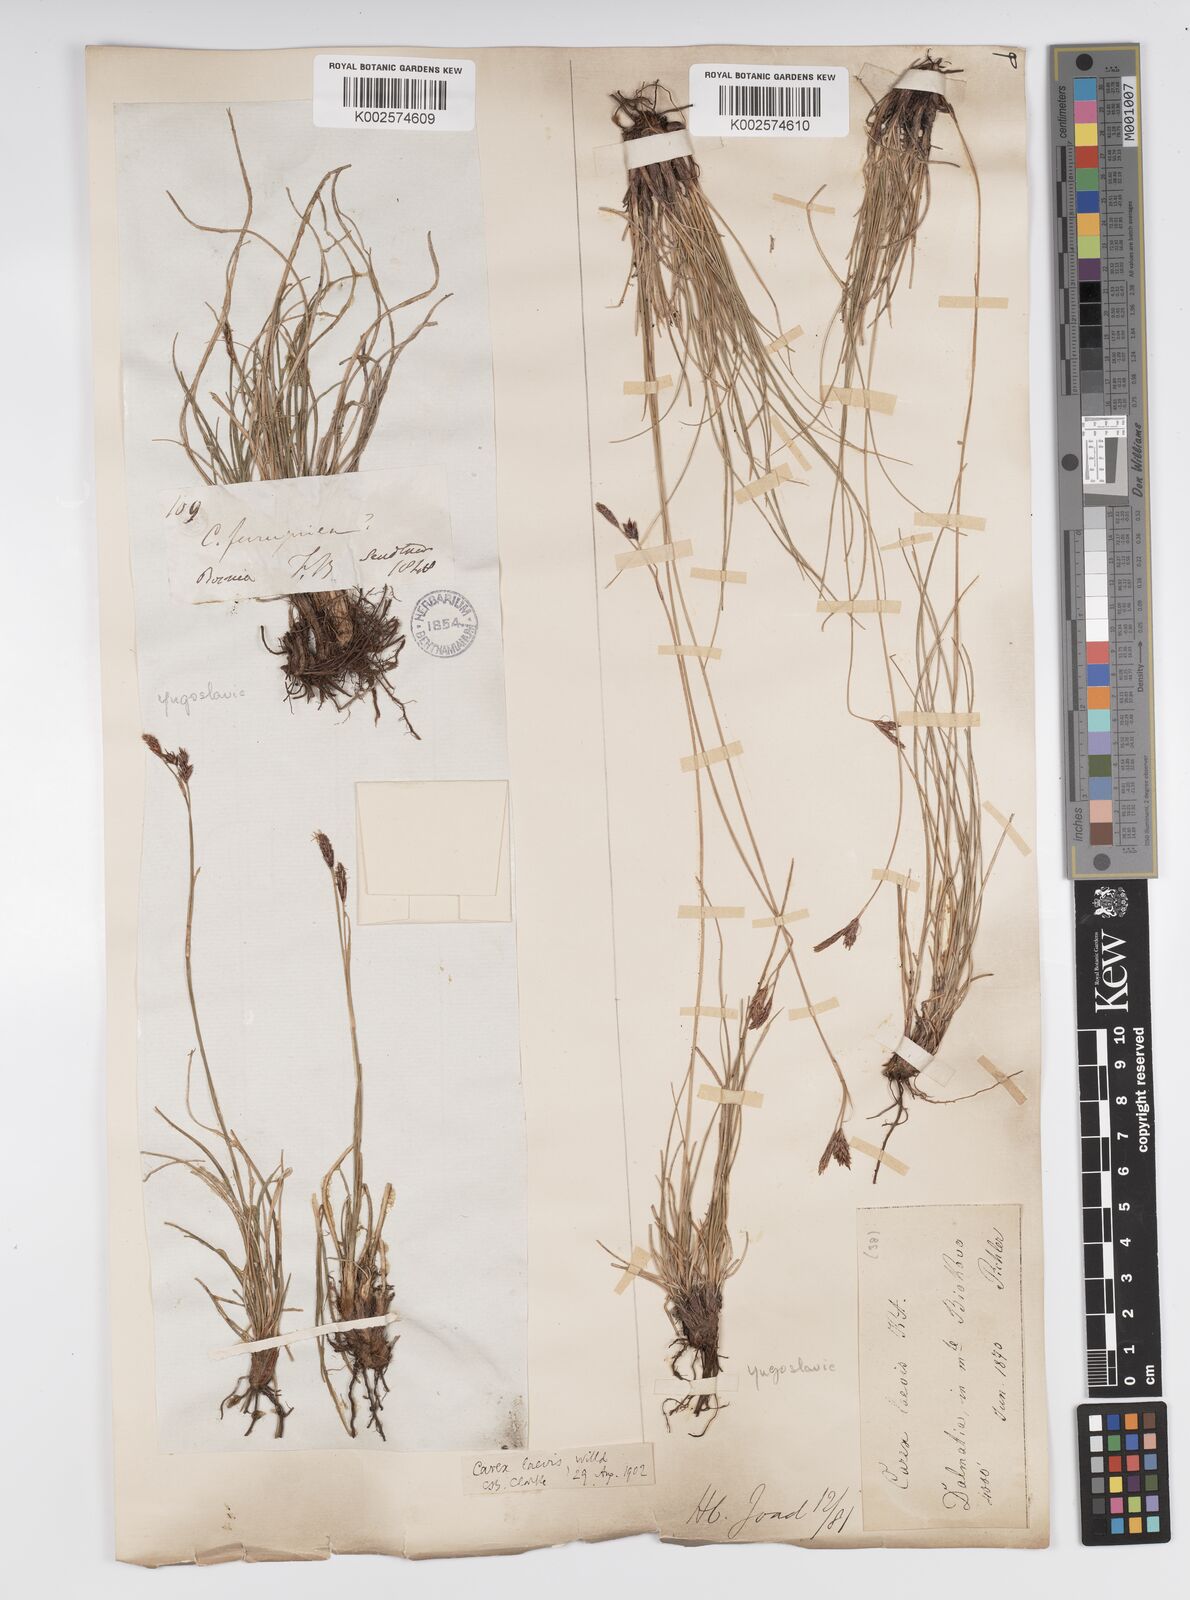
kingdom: Plantae
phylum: Tracheophyta
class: Liliopsida
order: Poales
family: Cyperaceae
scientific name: Cyperaceae
